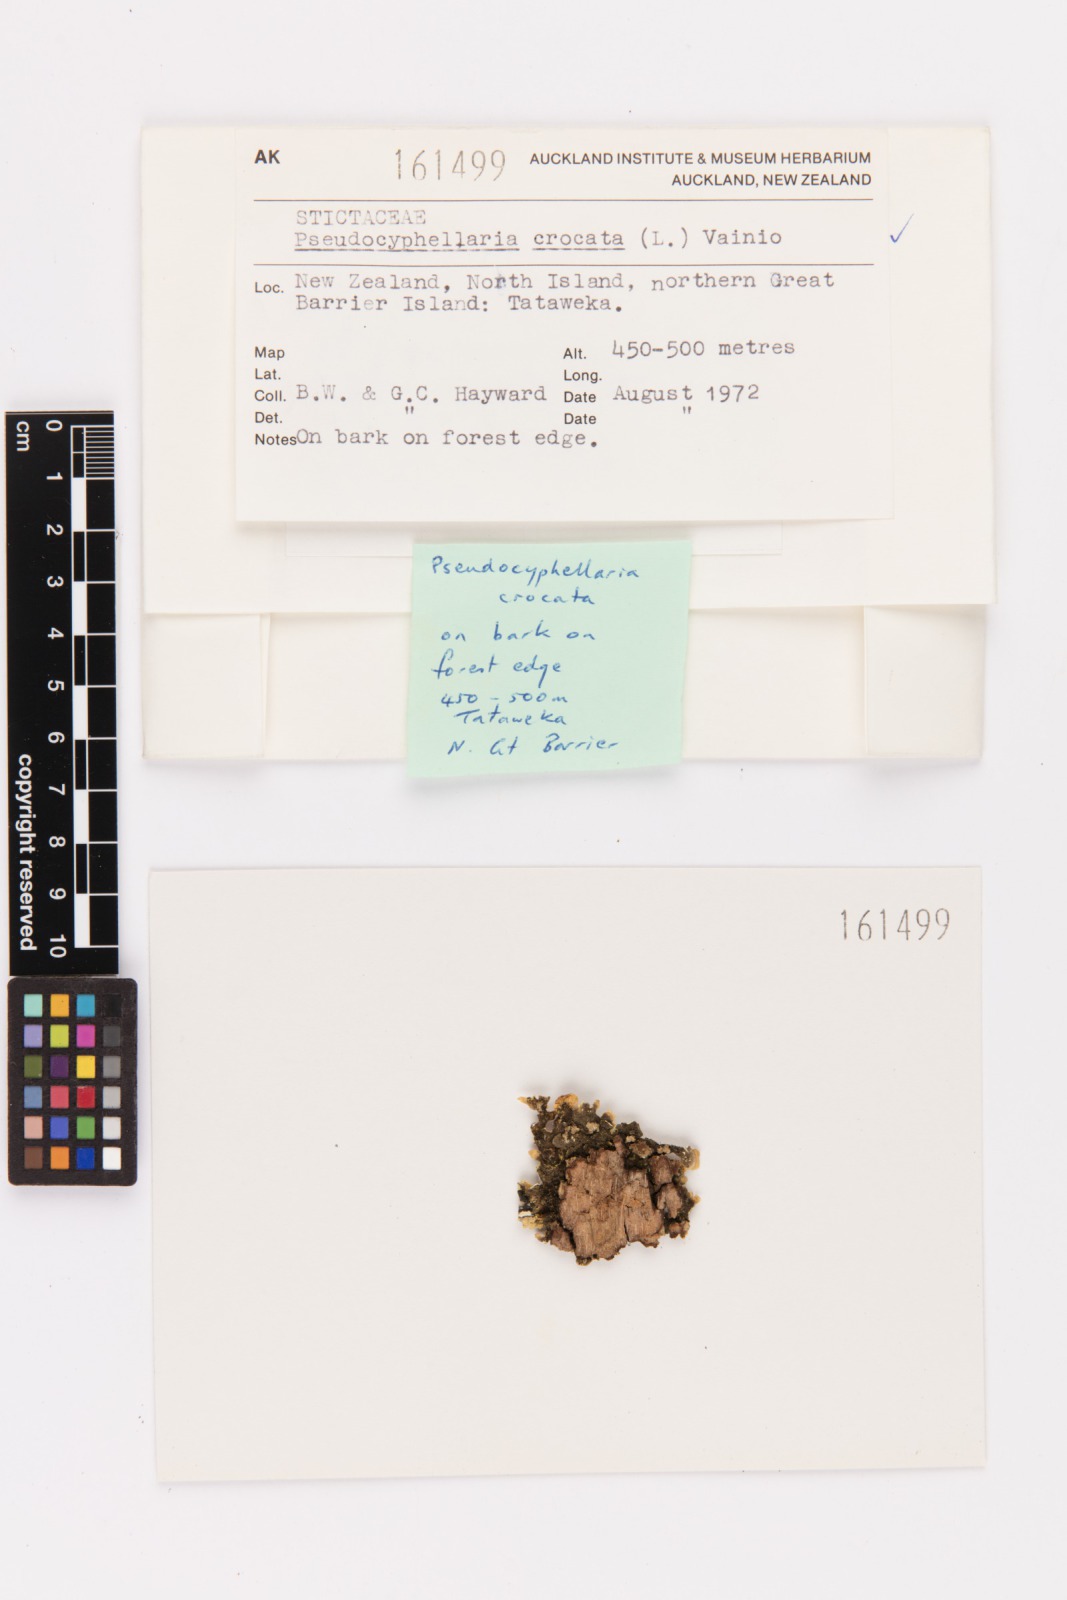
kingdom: Fungi
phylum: Ascomycota
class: Lecanoromycetes
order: Peltigerales
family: Lobariaceae
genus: Pseudocyphellaria
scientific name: Pseudocyphellaria crocata
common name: Golden specklebelly
